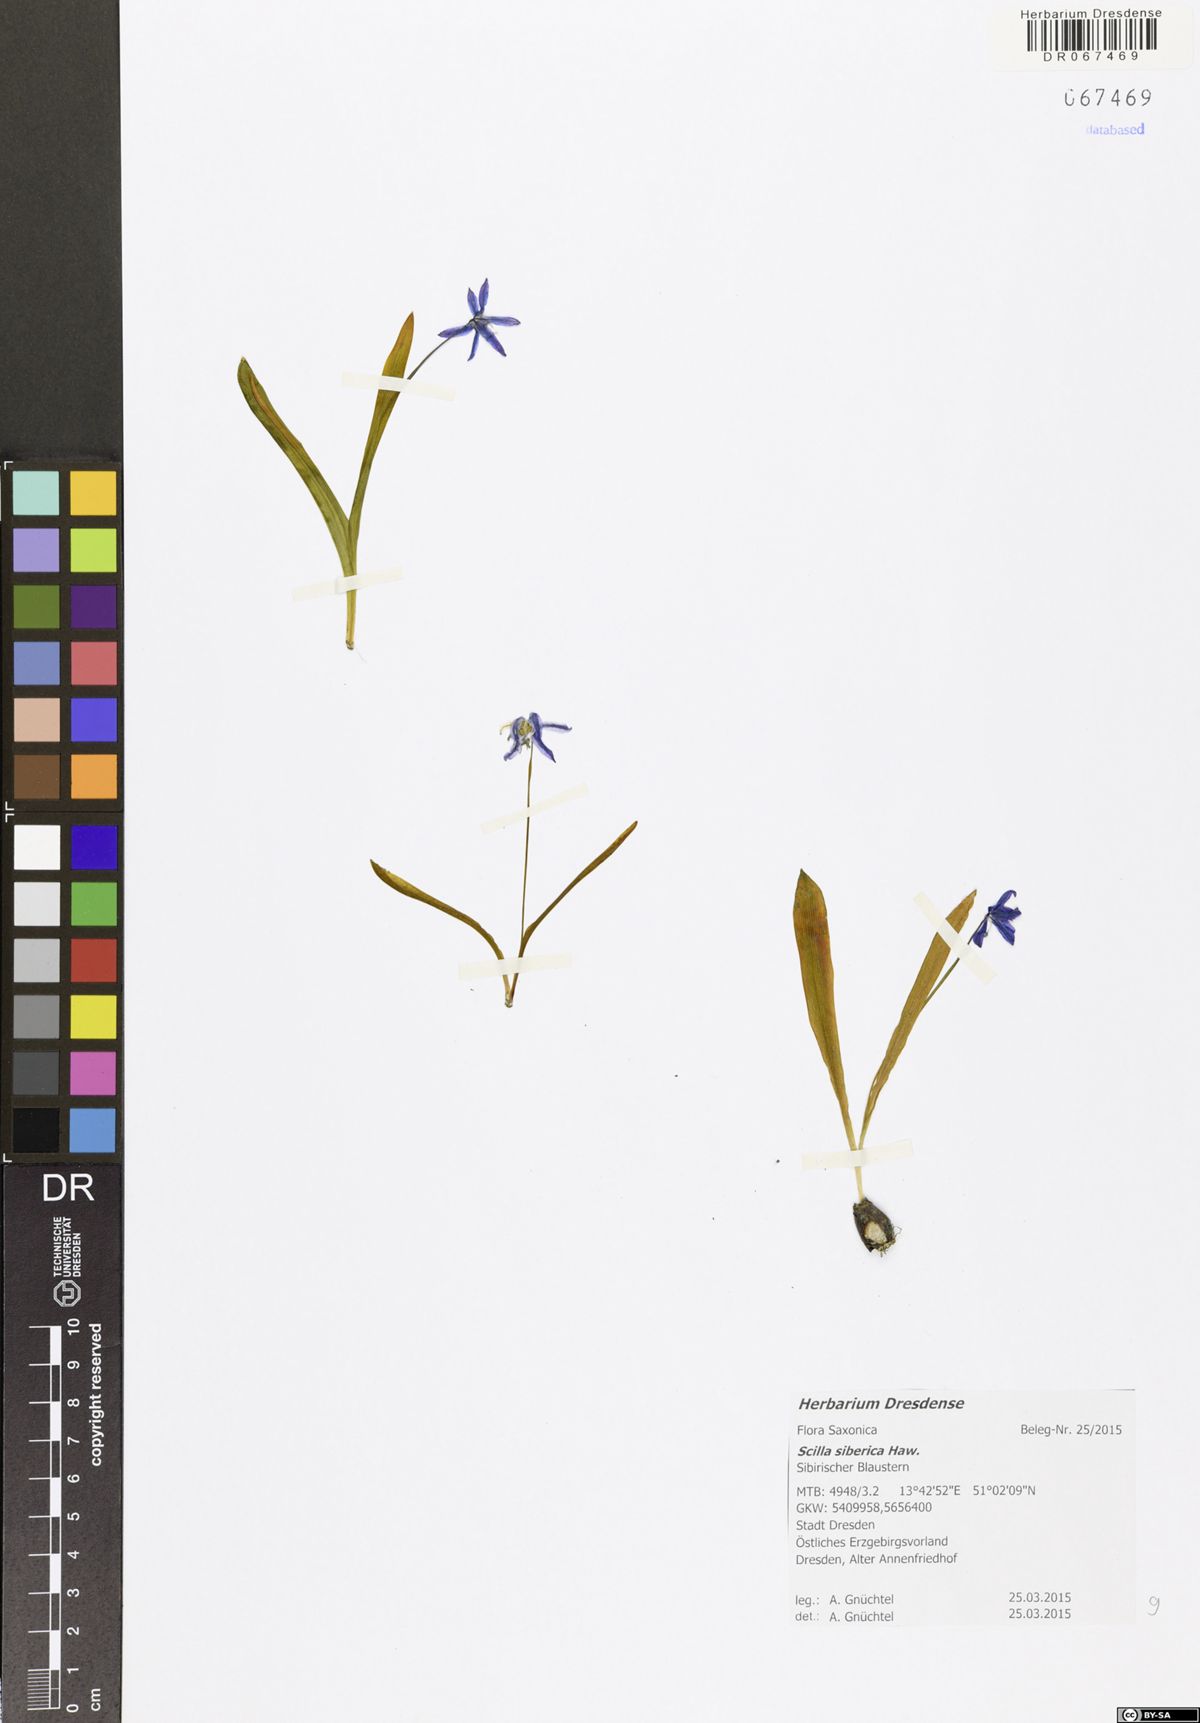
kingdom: Plantae
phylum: Tracheophyta
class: Liliopsida
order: Asparagales
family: Asparagaceae
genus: Scilla
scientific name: Scilla siberica
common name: Siberian squill
